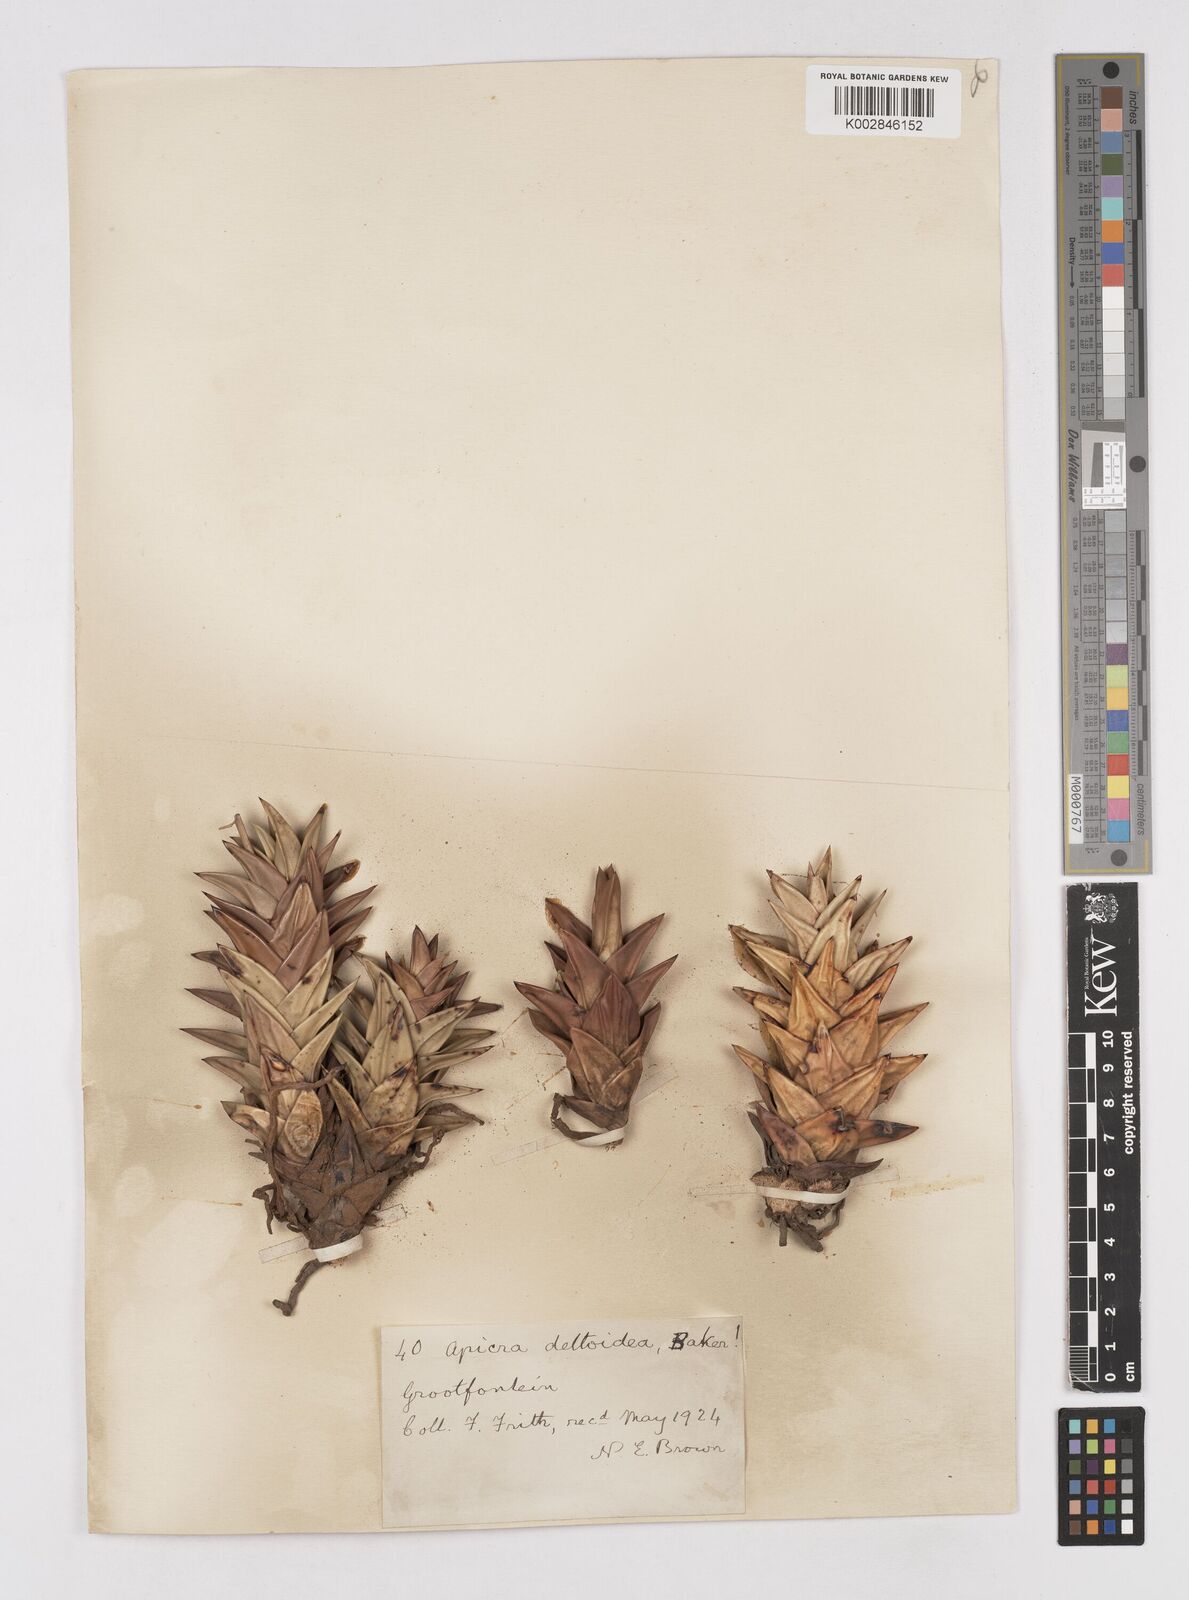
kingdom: Plantae
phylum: Tracheophyta
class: Liliopsida
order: Asparagales
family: Asphodelaceae
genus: Astroloba
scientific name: Astroloba congesta
